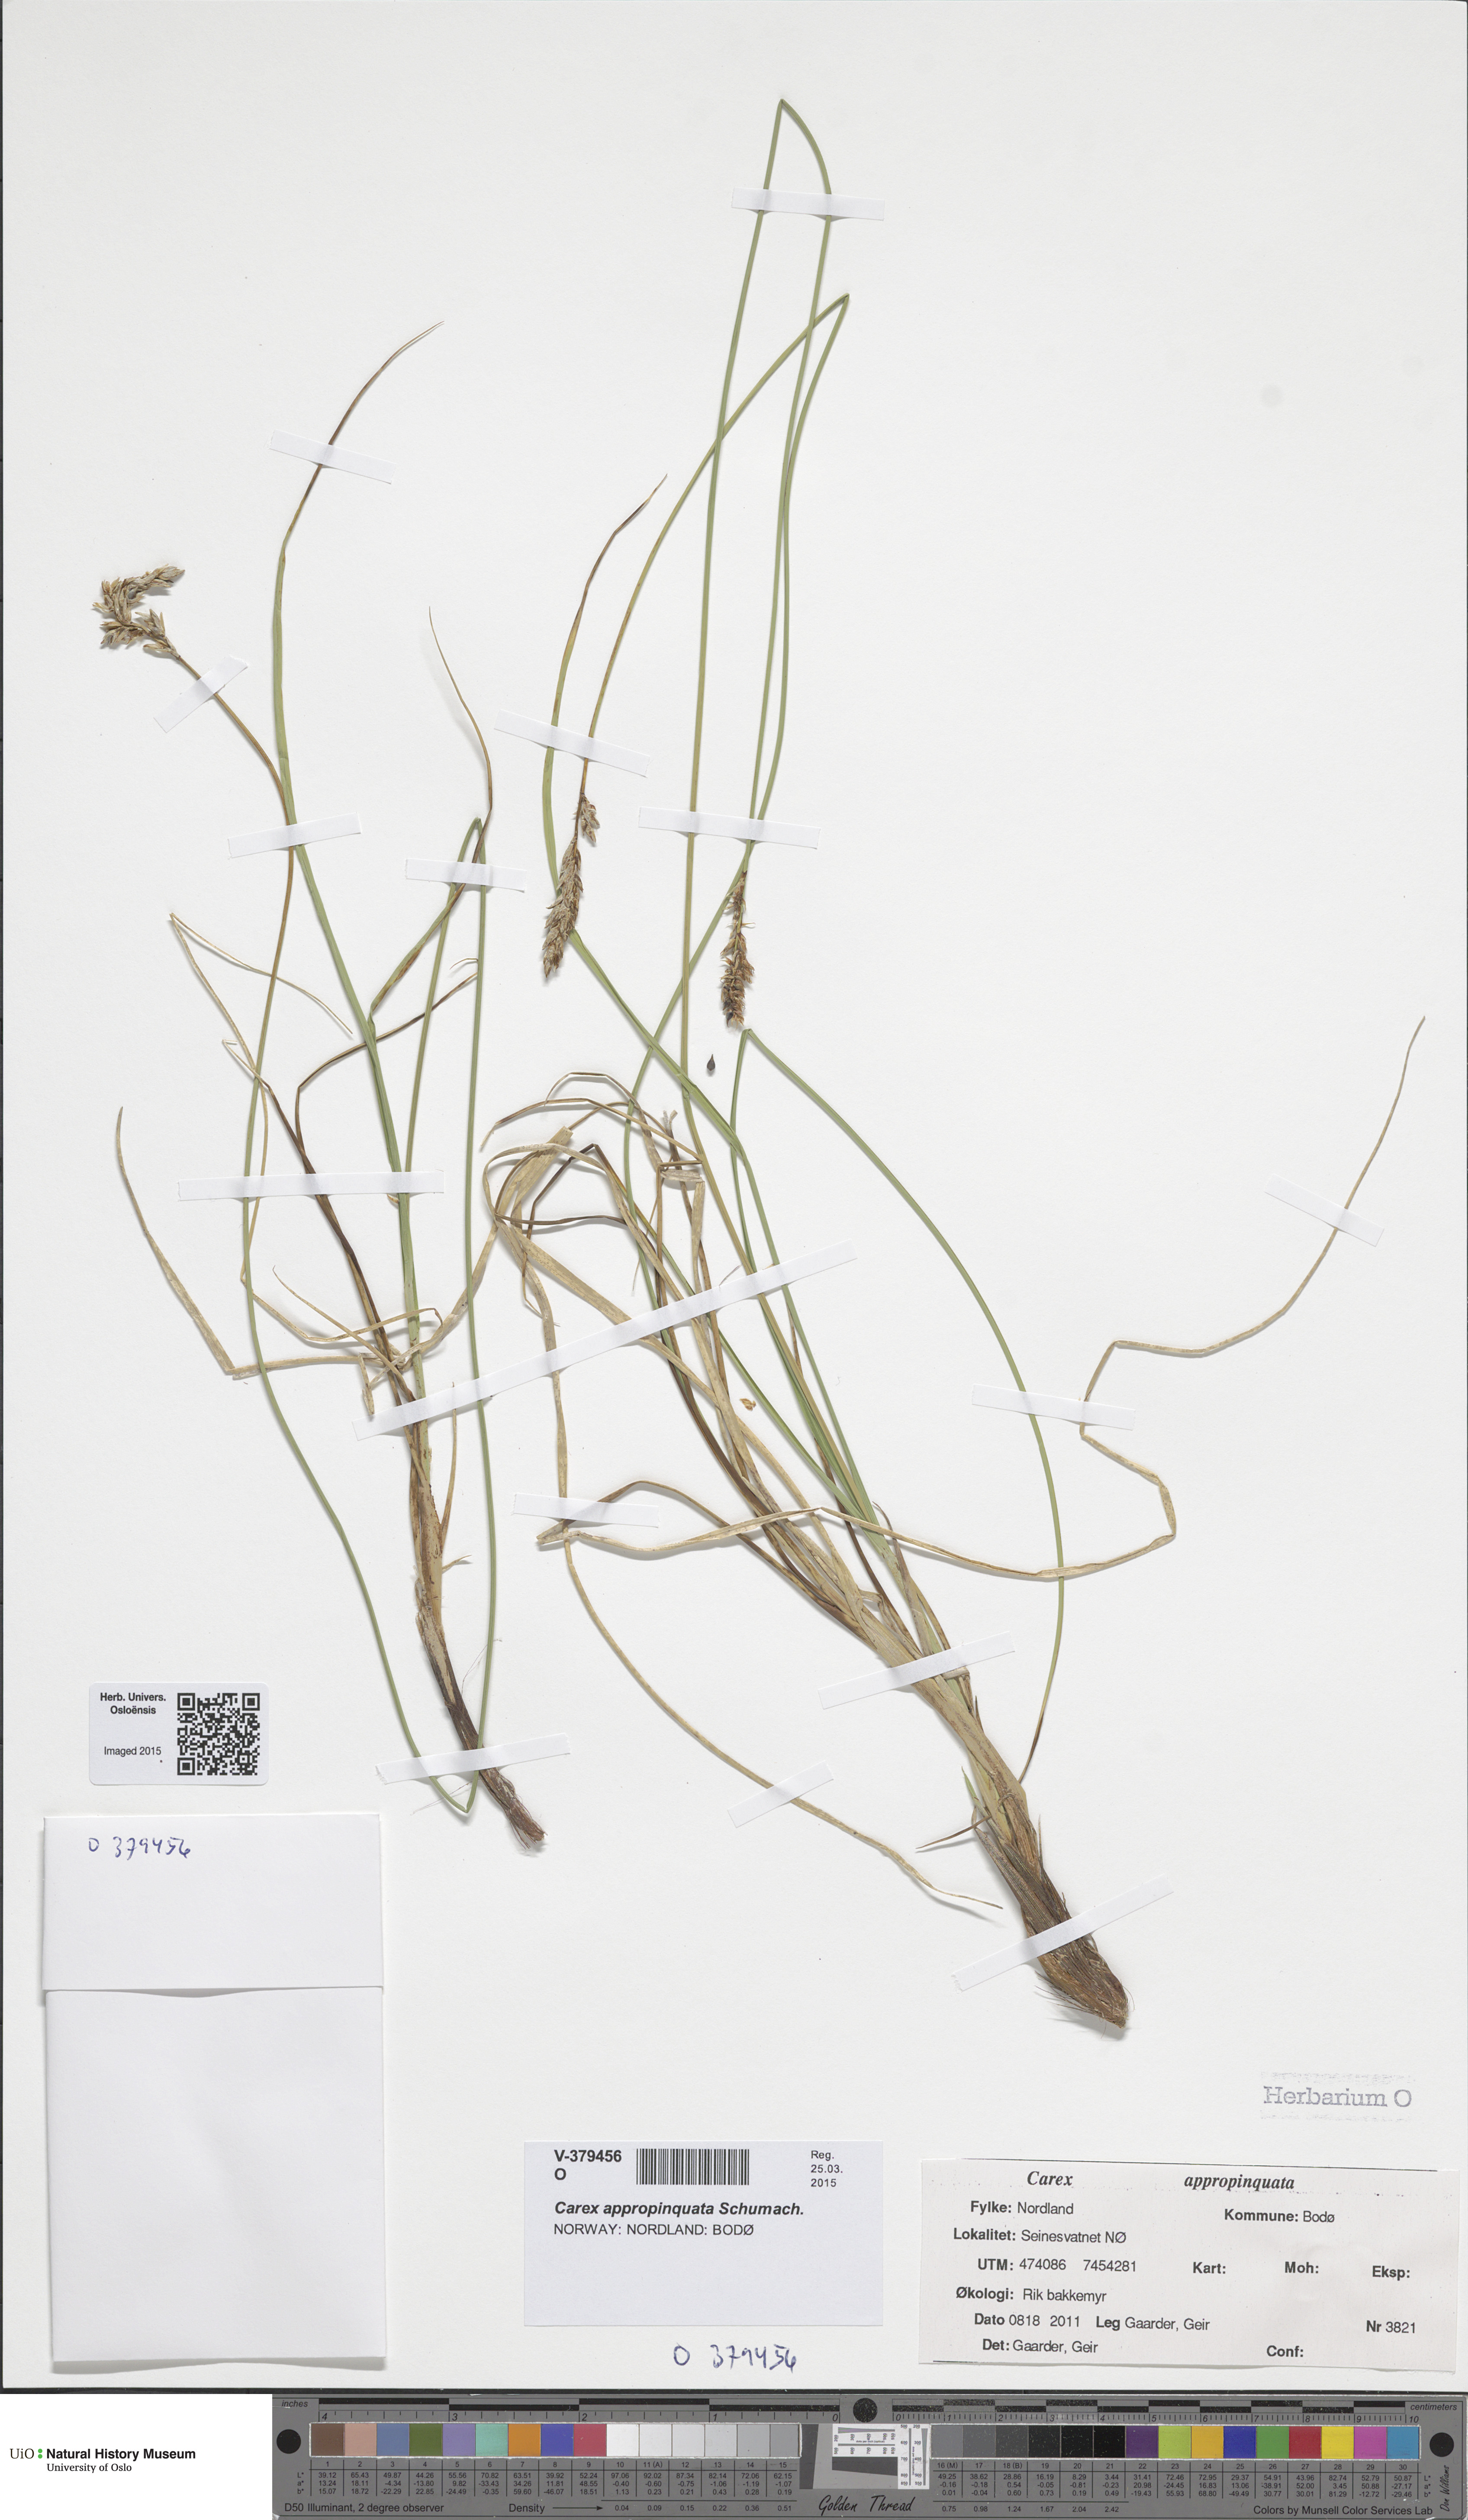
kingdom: Plantae
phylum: Tracheophyta
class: Liliopsida
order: Poales
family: Cyperaceae
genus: Carex
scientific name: Carex appropinquata
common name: Fibrous tussock-sedge
